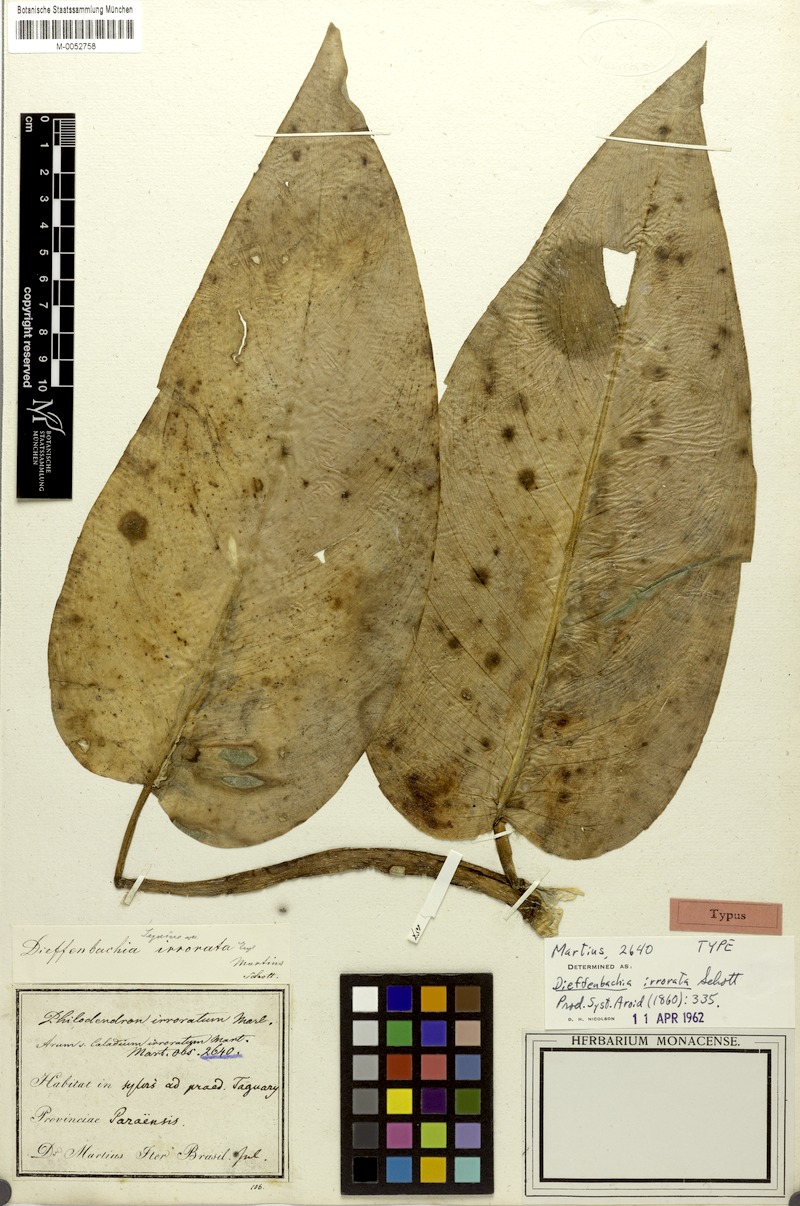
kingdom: Plantae
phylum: Tracheophyta
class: Liliopsida
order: Alismatales
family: Araceae
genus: Dieffenbachia
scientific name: Dieffenbachia seguine
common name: Dumbcane
